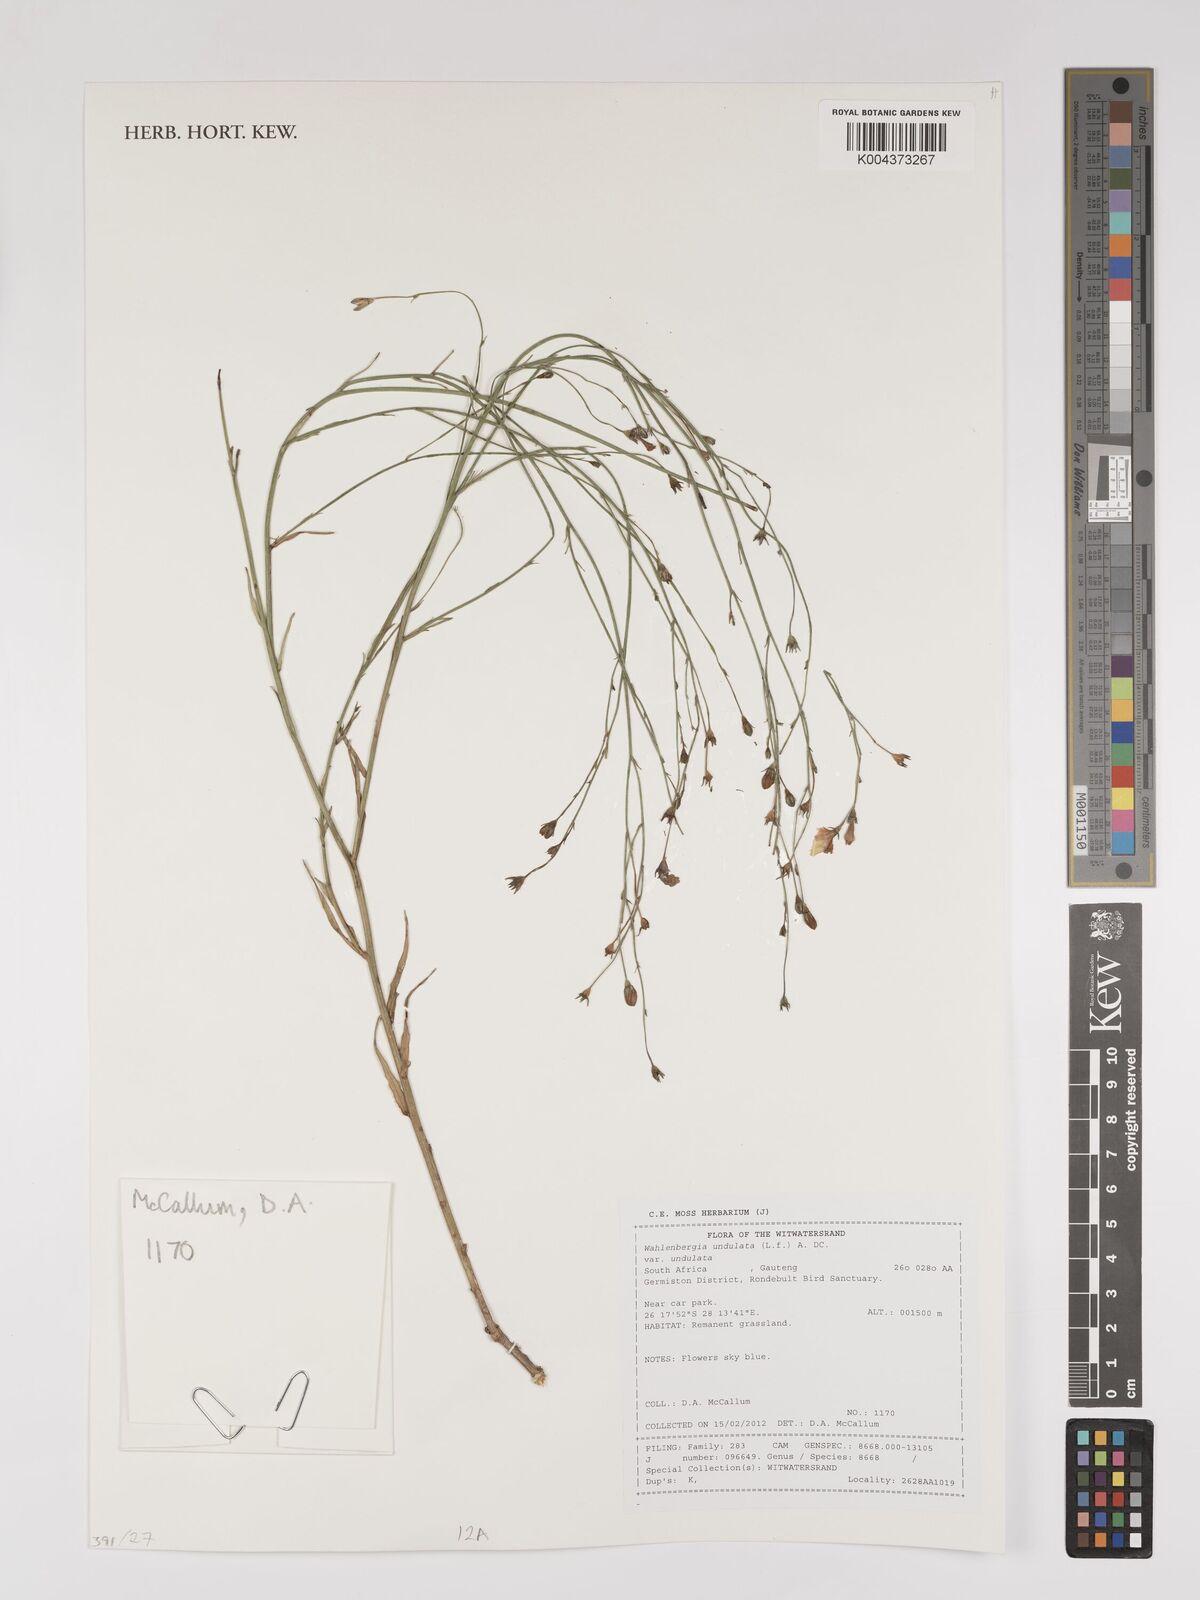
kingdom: Plantae
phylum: Tracheophyta
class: Magnoliopsida
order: Asterales
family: Campanulaceae
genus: Wahlenbergia
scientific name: Wahlenbergia undulata
